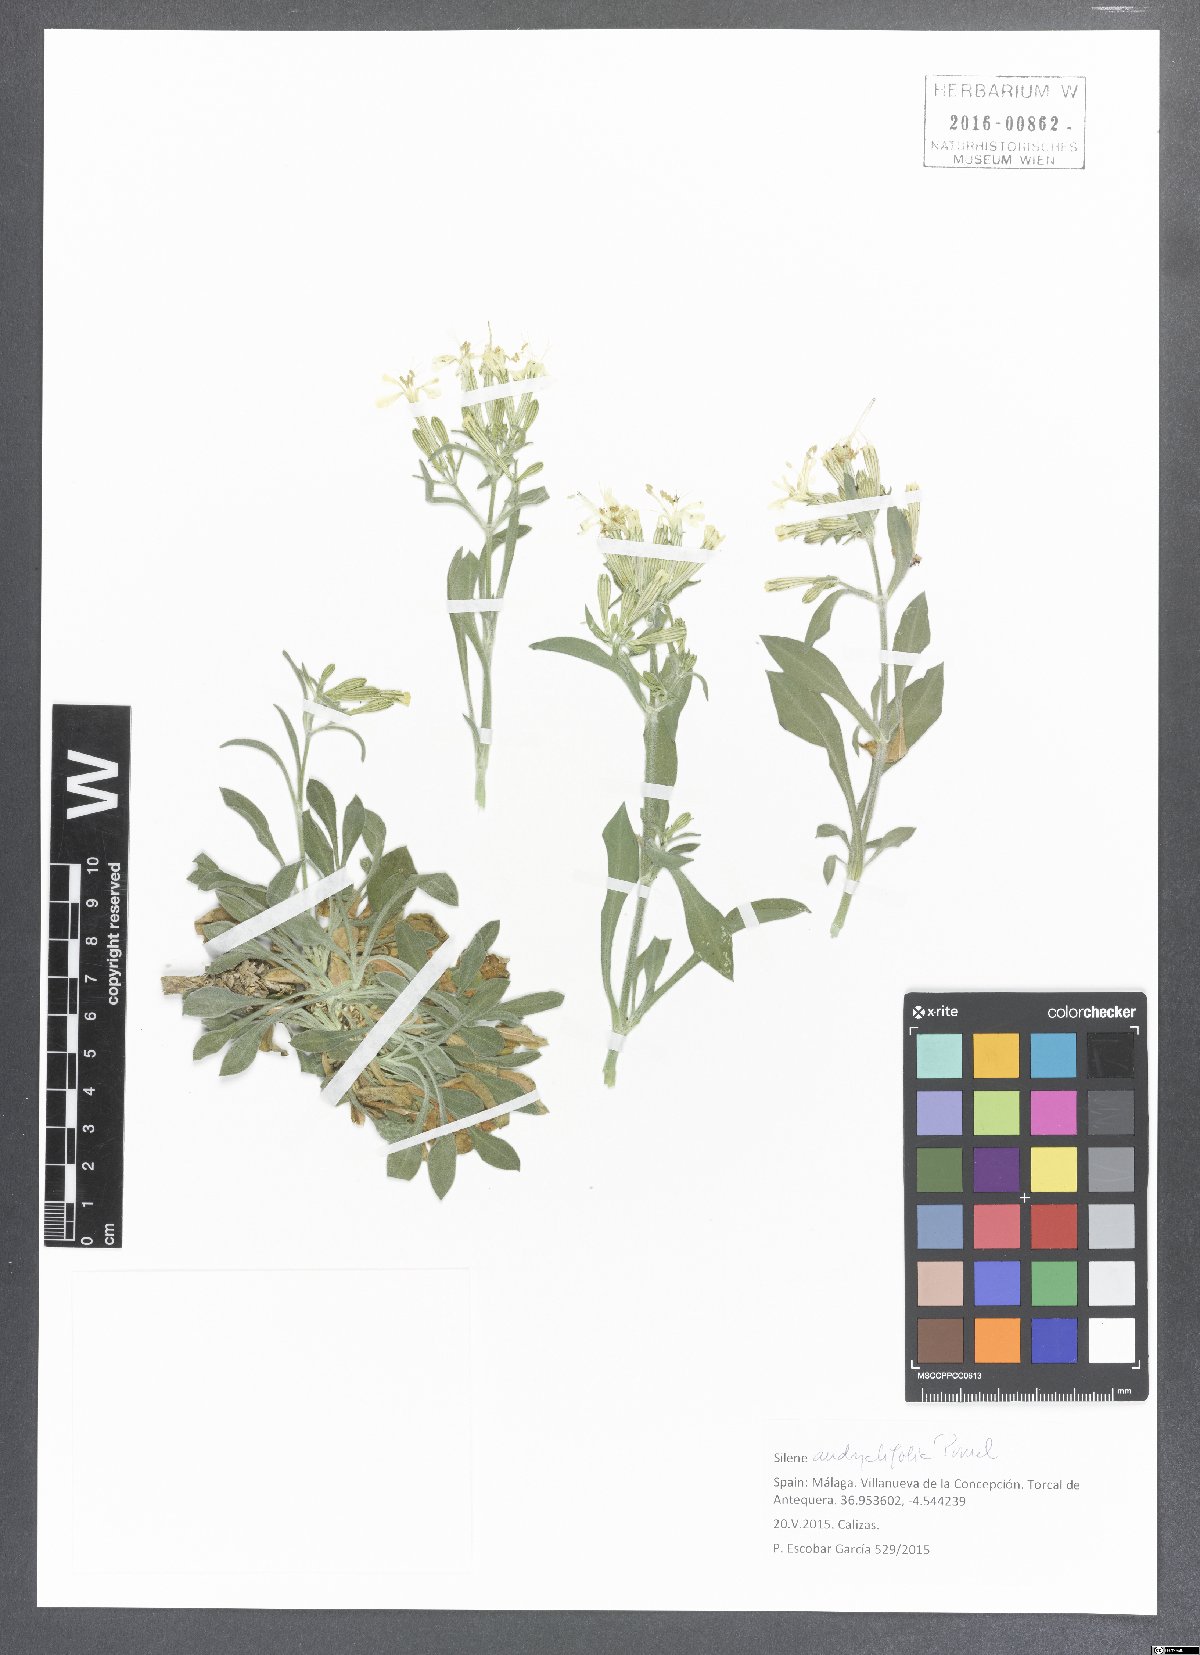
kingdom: Plantae
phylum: Tracheophyta
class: Magnoliopsida
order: Caryophyllales
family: Caryophyllaceae
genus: Silene
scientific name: Silene andryalifolia
